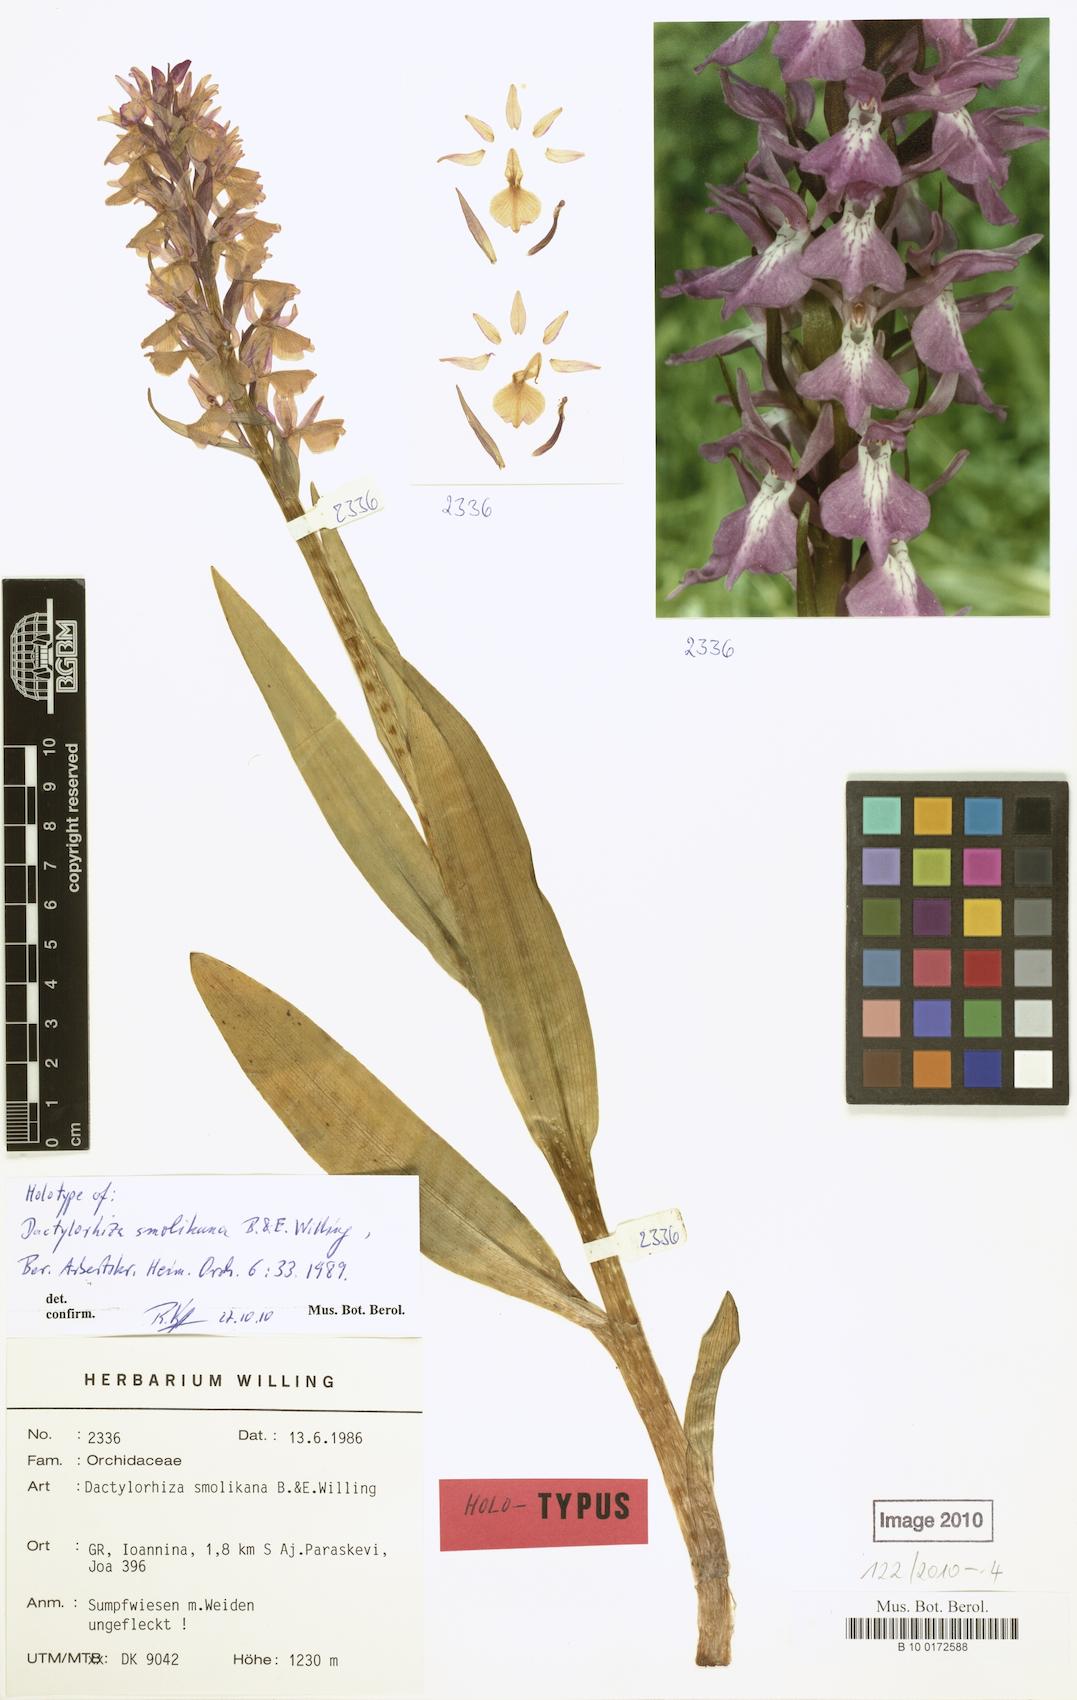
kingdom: Plantae
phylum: Tracheophyta
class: Liliopsida
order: Asparagales
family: Orchidaceae
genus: Dactylorhiza
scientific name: Dactylorhiza majalis
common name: Marsh orchid
